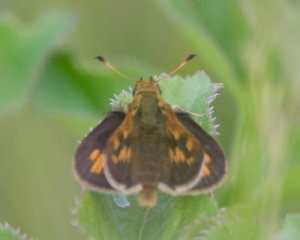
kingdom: Animalia
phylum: Arthropoda
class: Insecta
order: Lepidoptera
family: Hesperiidae
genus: Polites
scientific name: Polites
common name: Long Dash Skipper
